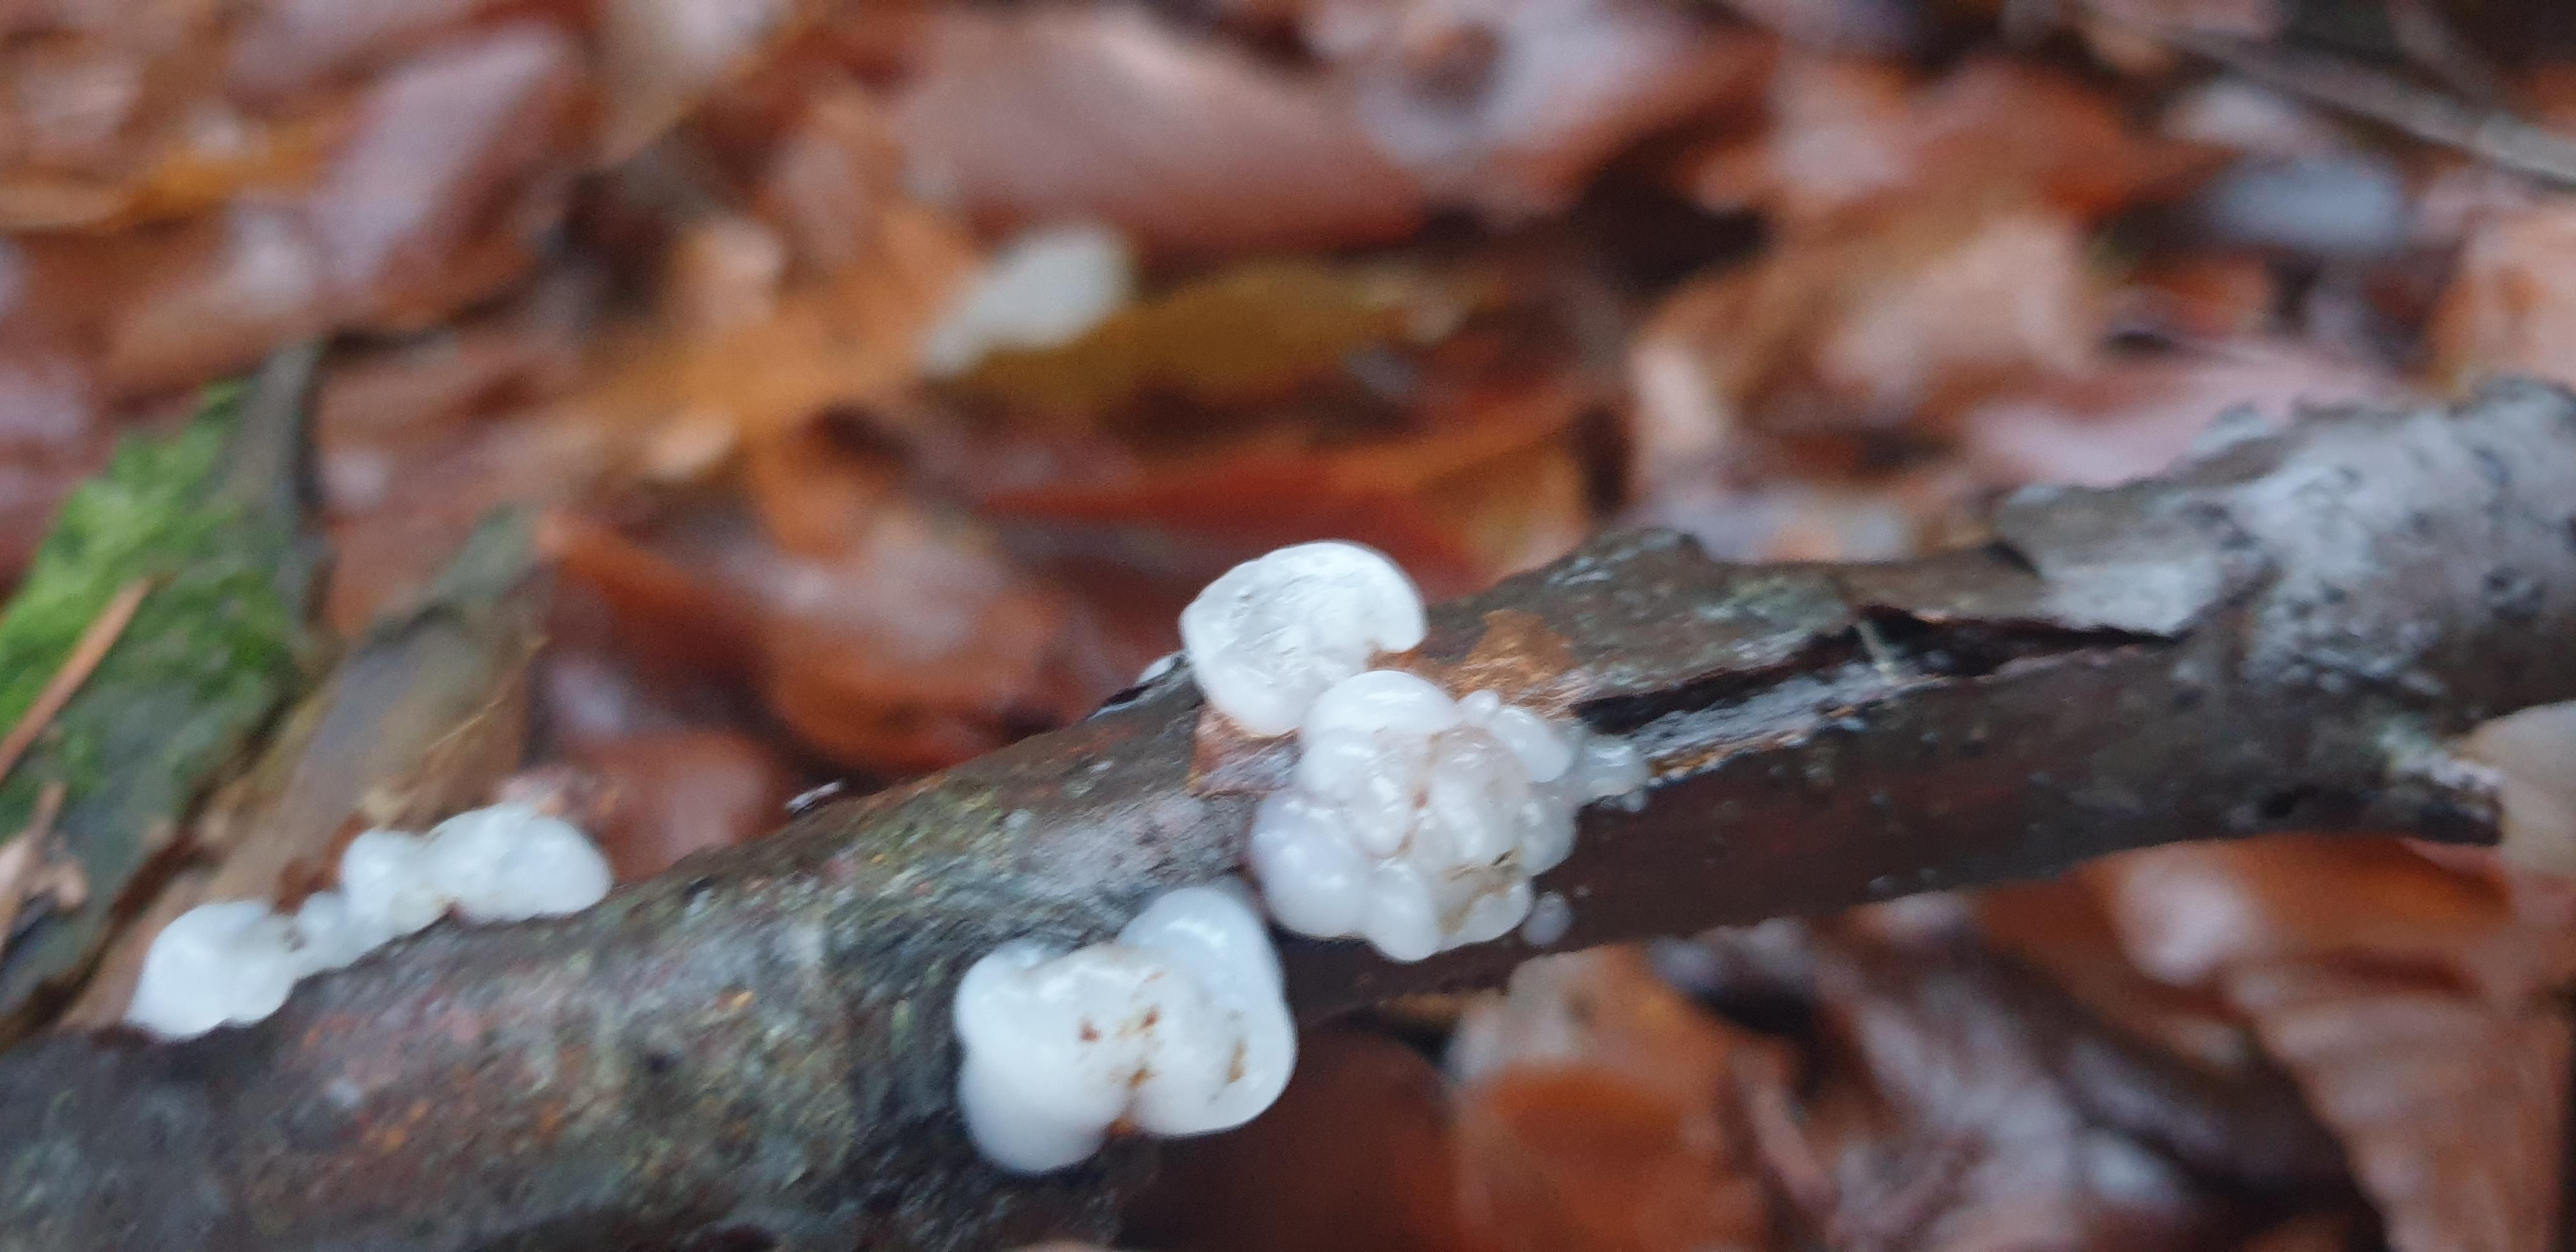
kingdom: Fungi
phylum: Basidiomycota
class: Agaricomycetes
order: Auriculariales
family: Auriculariaceae
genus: Exidia
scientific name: Exidia thuretiana
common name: hvidlig bævretop
